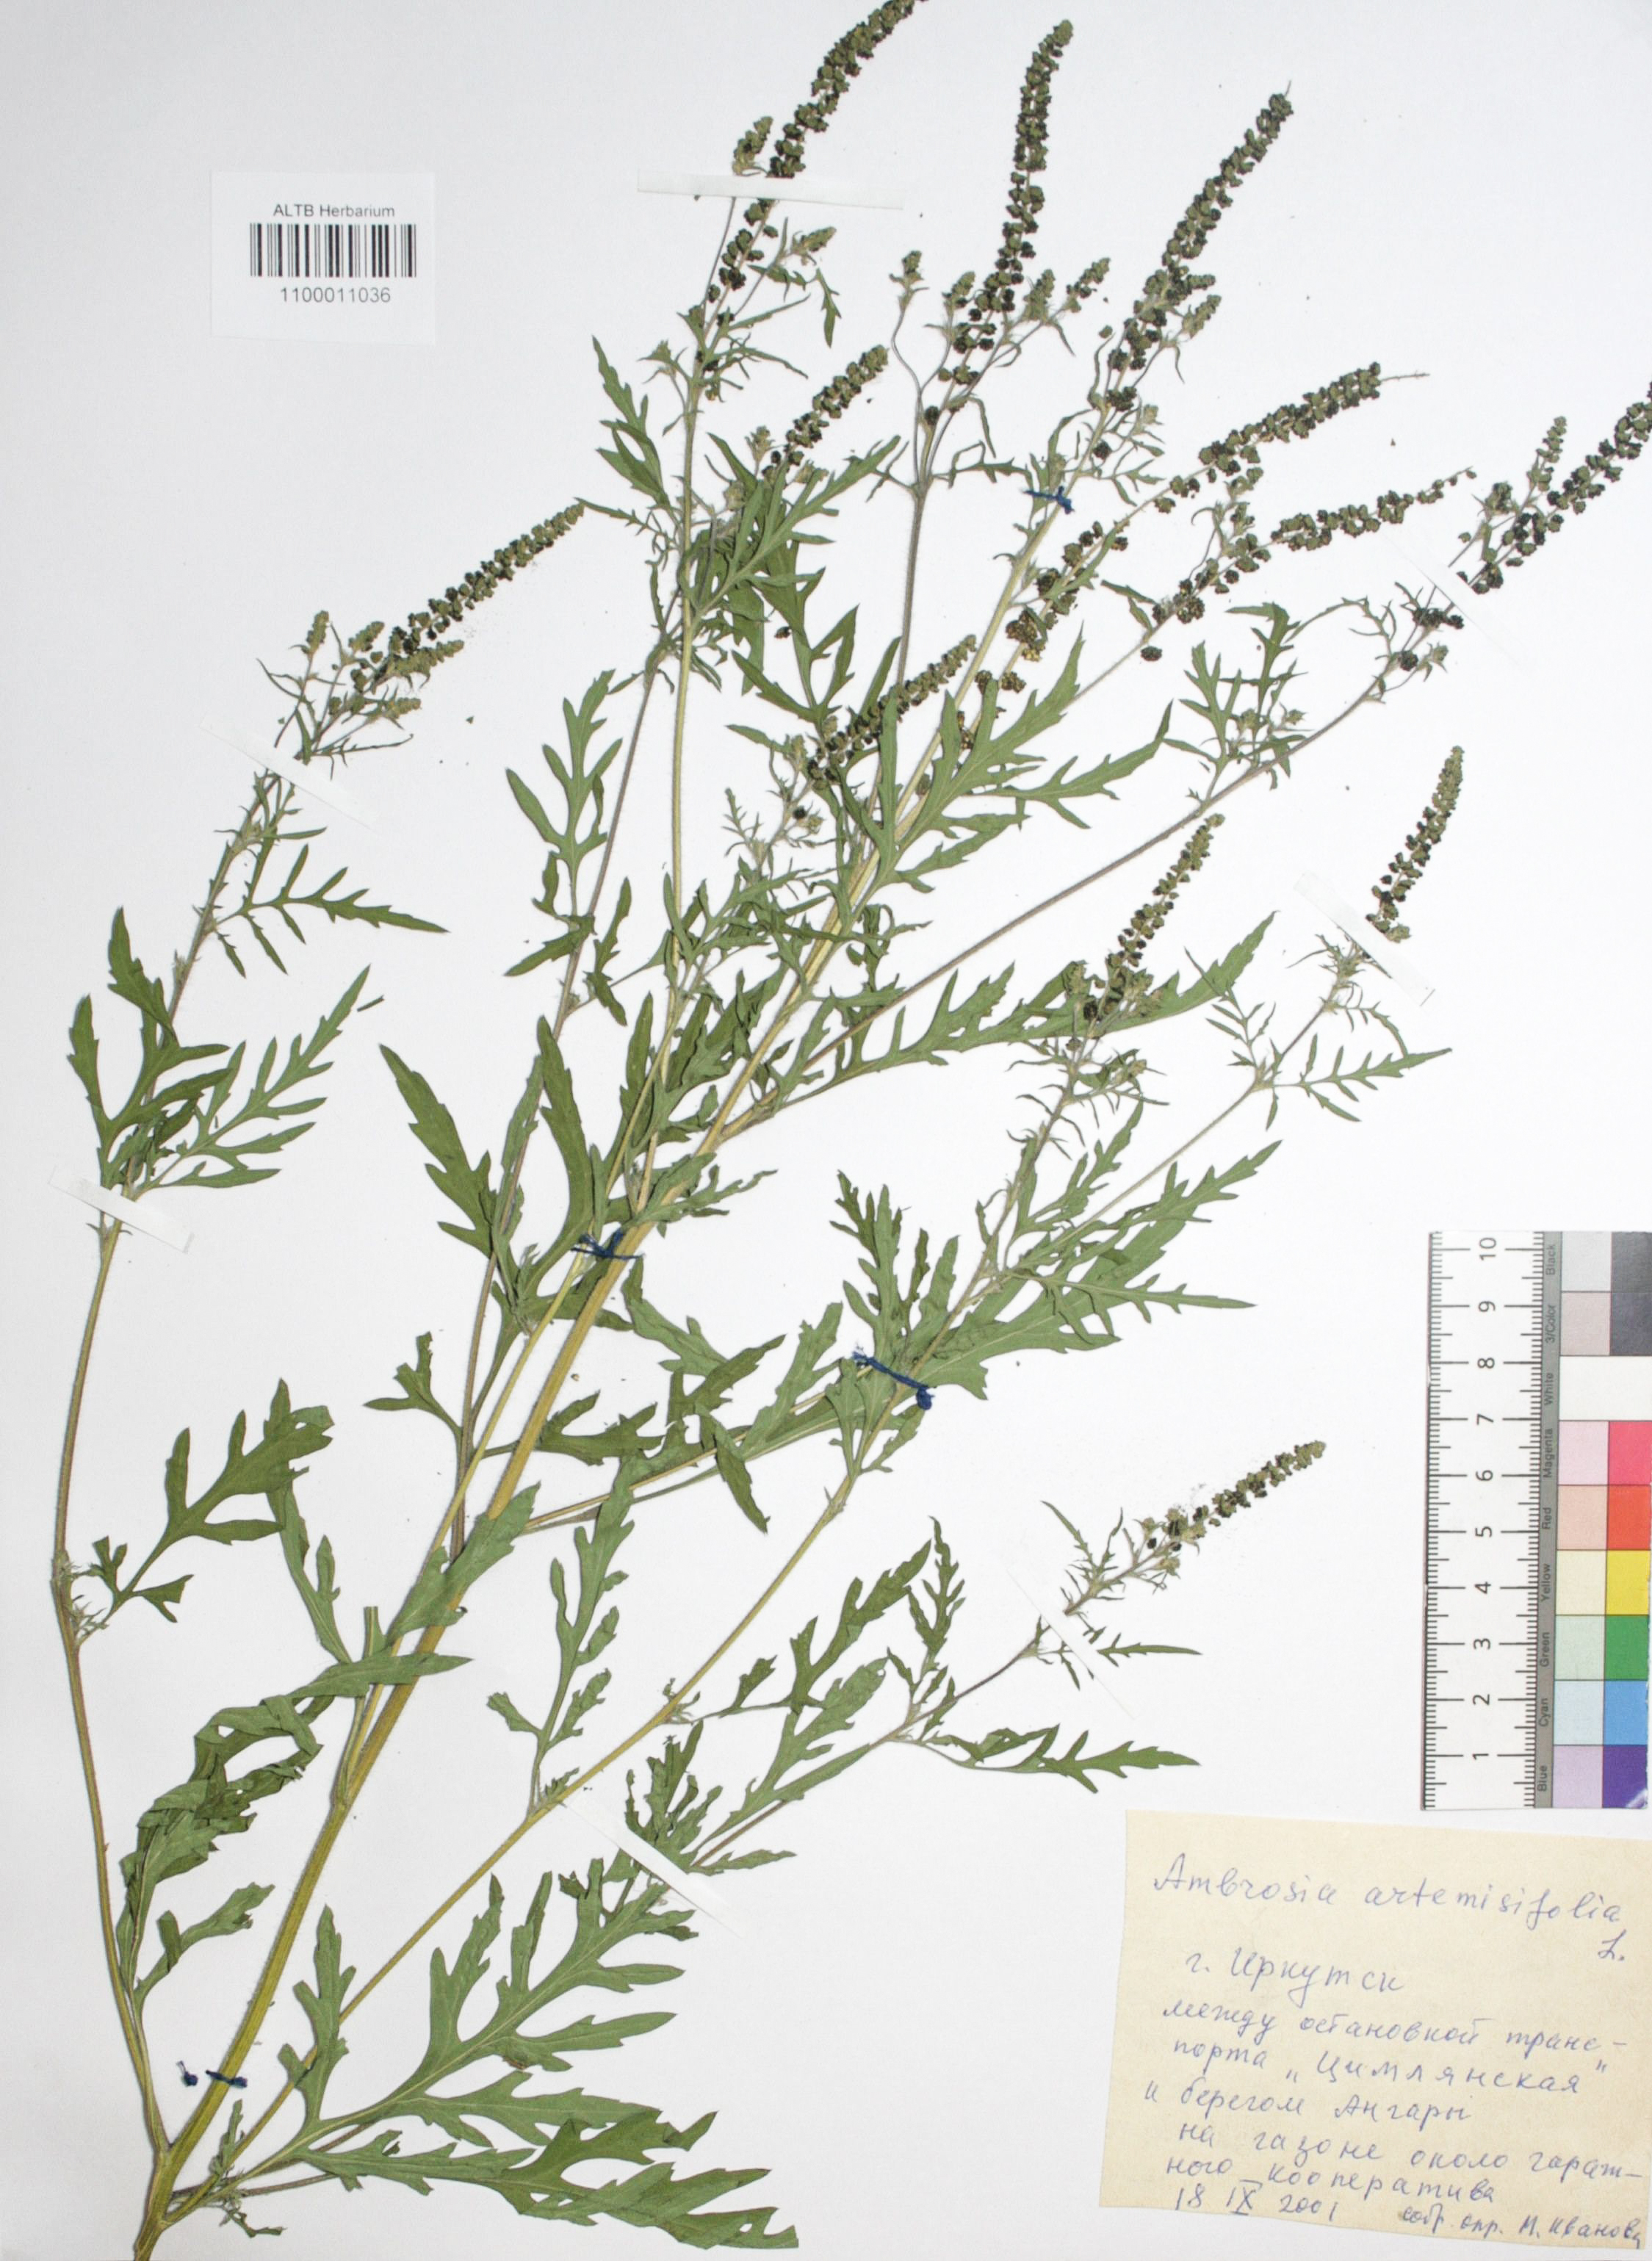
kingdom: Plantae
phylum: Tracheophyta
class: Magnoliopsida
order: Asterales
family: Asteraceae
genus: Ambrosia
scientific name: Ambrosia artemisiifolia
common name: Annual ragweed
